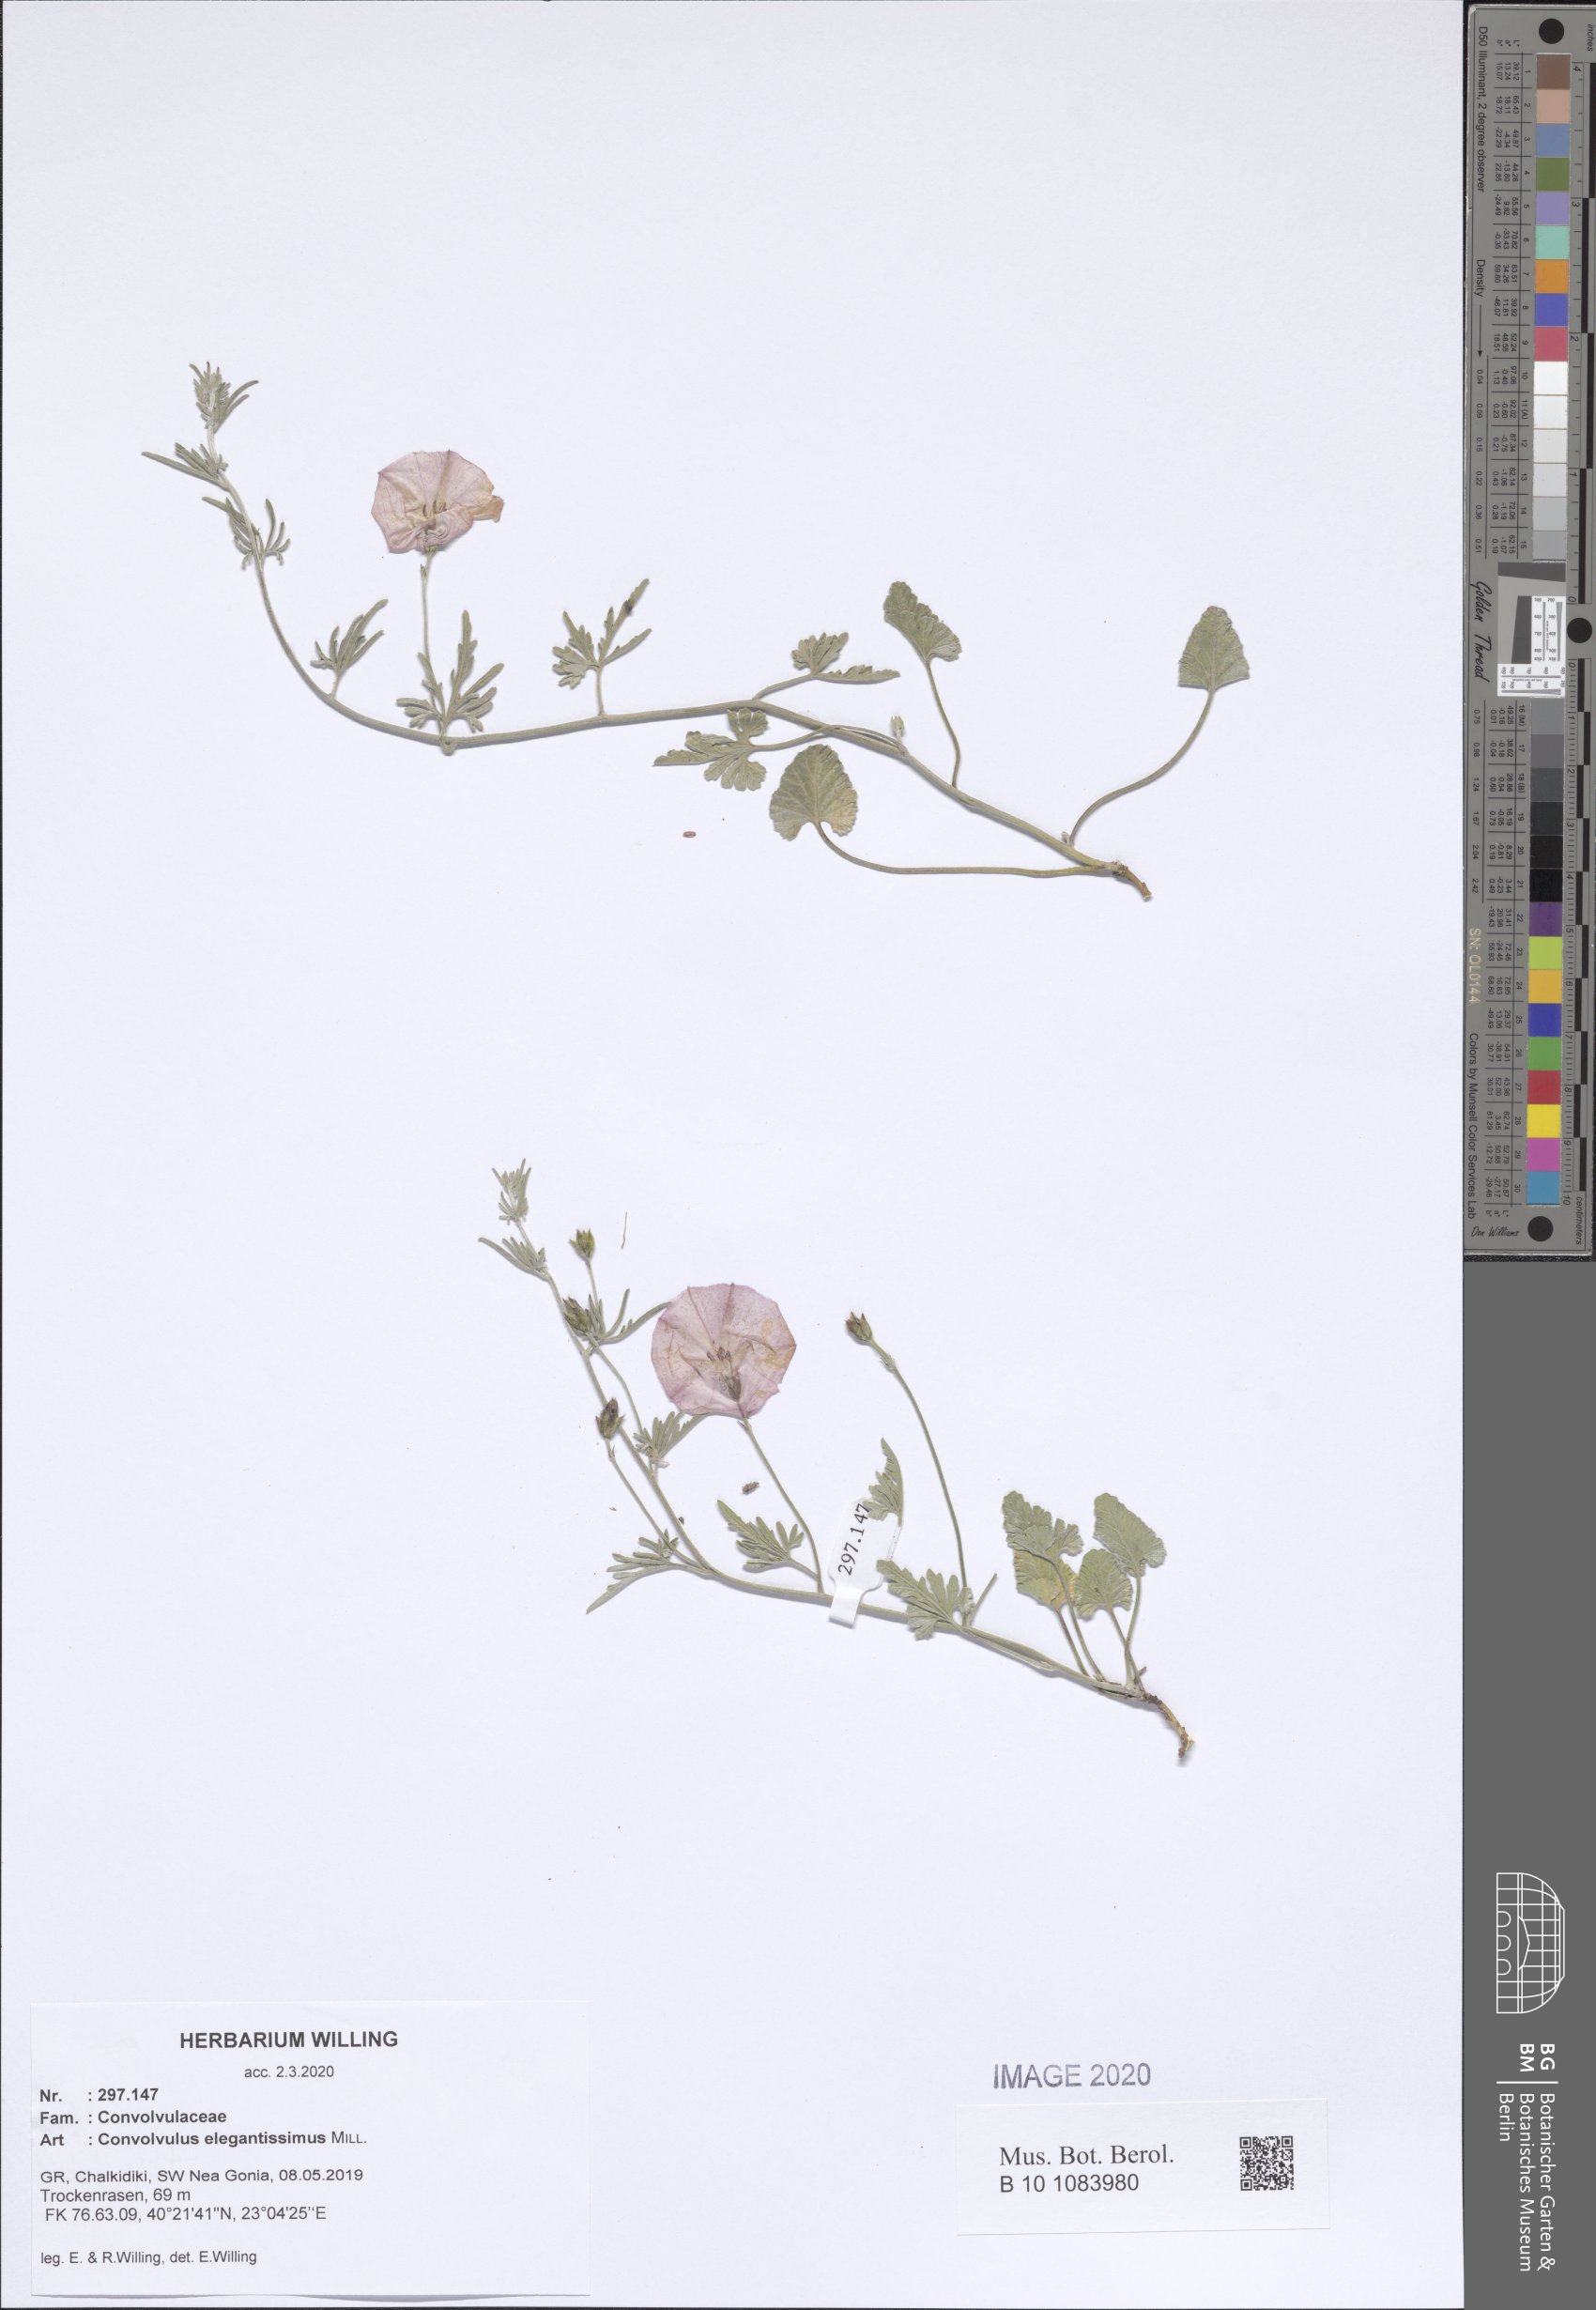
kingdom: Plantae
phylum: Tracheophyta
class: Magnoliopsida
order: Solanales
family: Convolvulaceae
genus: Convolvulus
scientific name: Convolvulus elegantissimus
